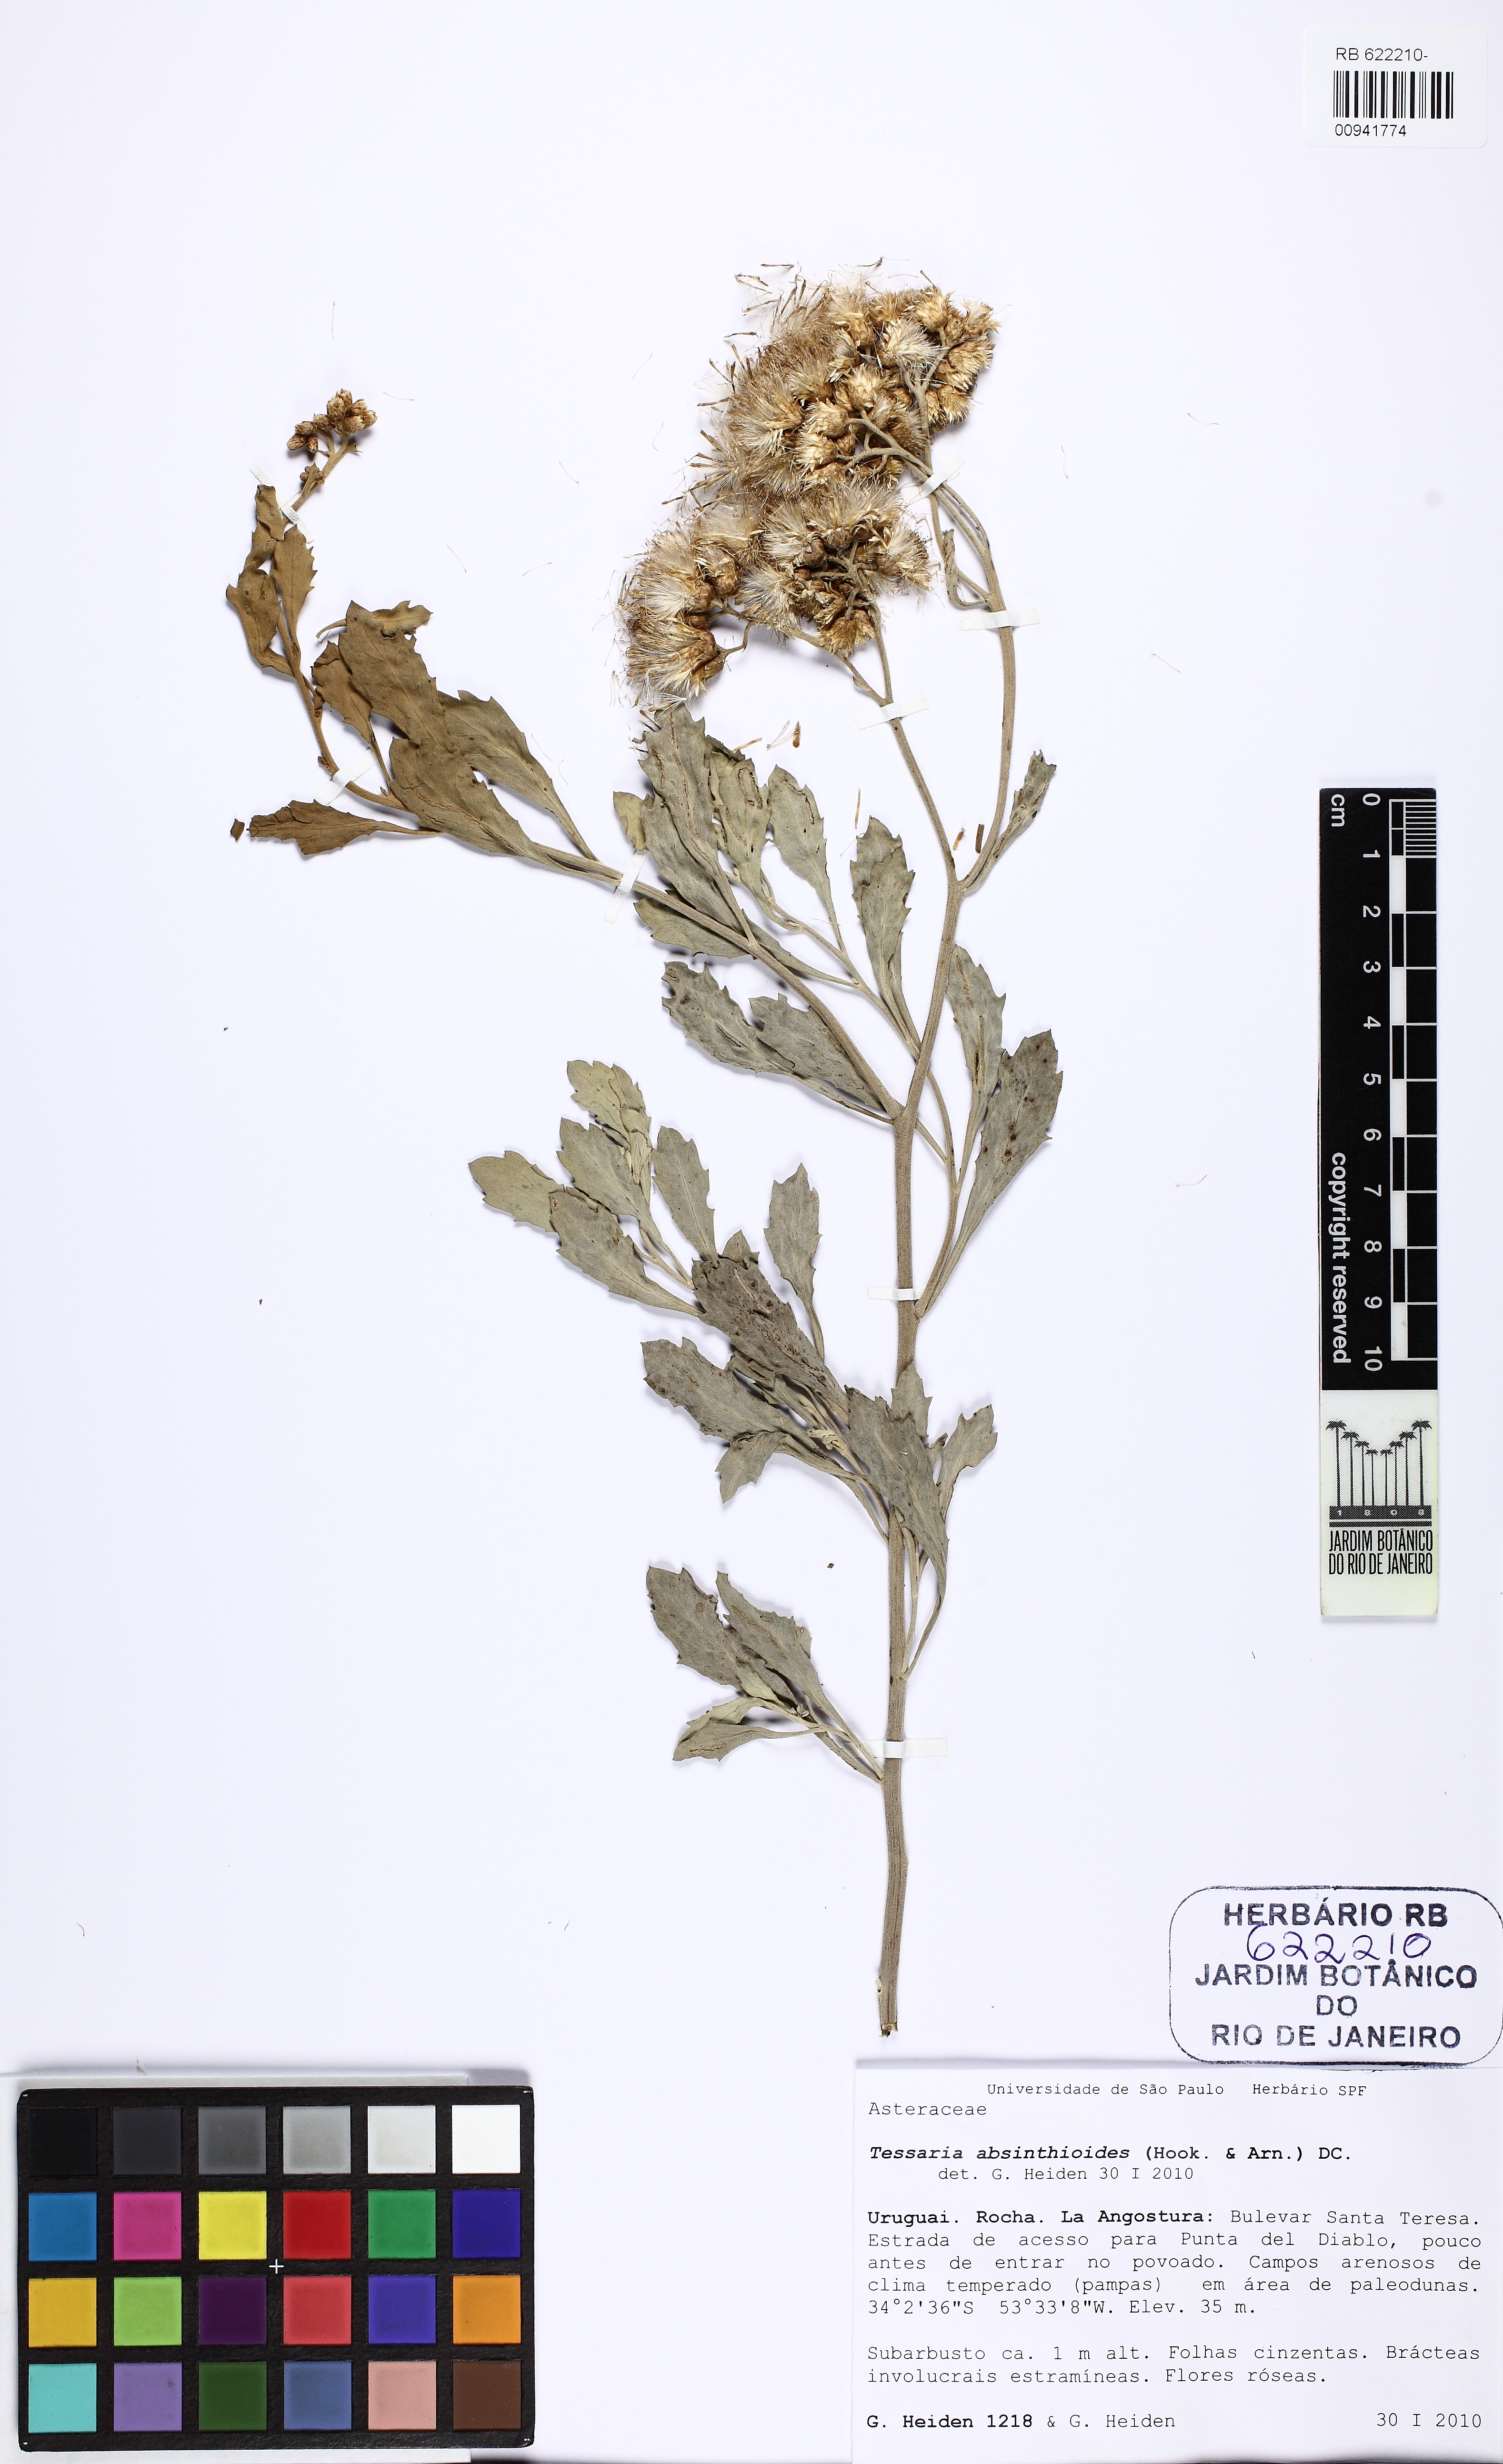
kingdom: Plantae
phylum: Tracheophyta
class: Magnoliopsida
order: Asterales
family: Asteraceae
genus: Tessaria
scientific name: Tessaria absinthioides
